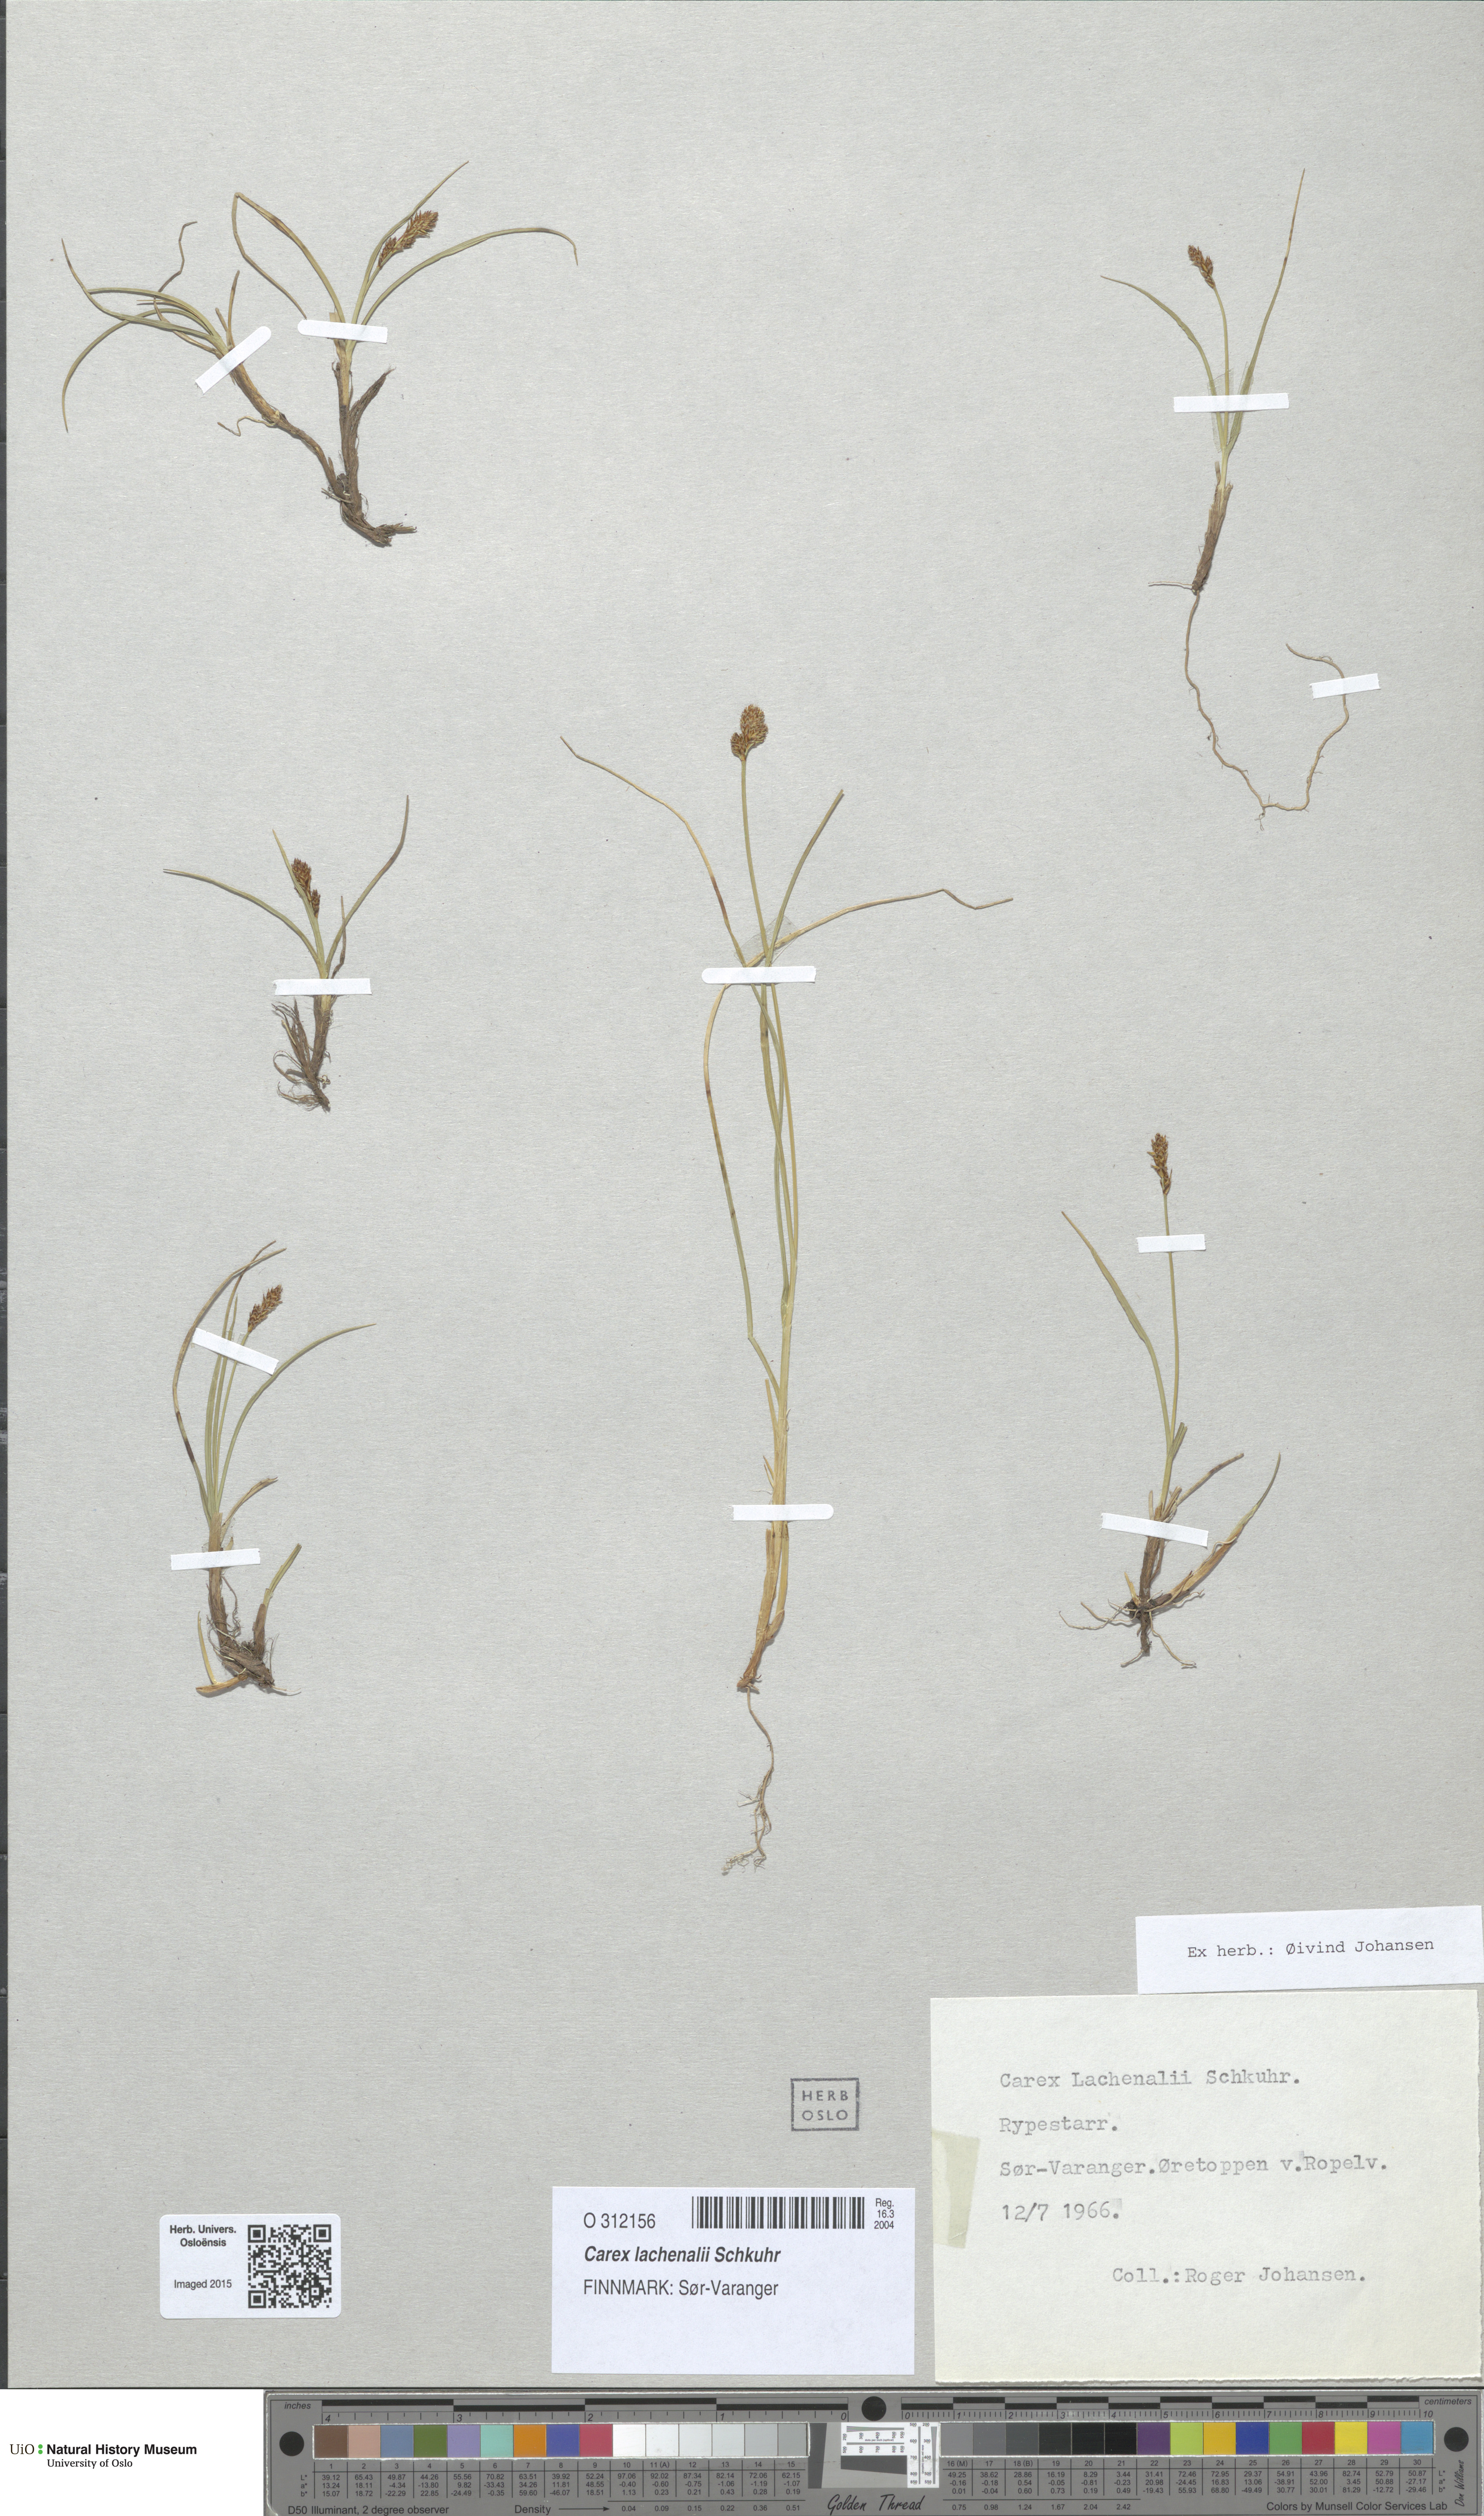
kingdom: Plantae
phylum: Tracheophyta
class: Liliopsida
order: Poales
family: Cyperaceae
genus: Carex
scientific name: Carex lachenalii
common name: Hare's-foot sedge
